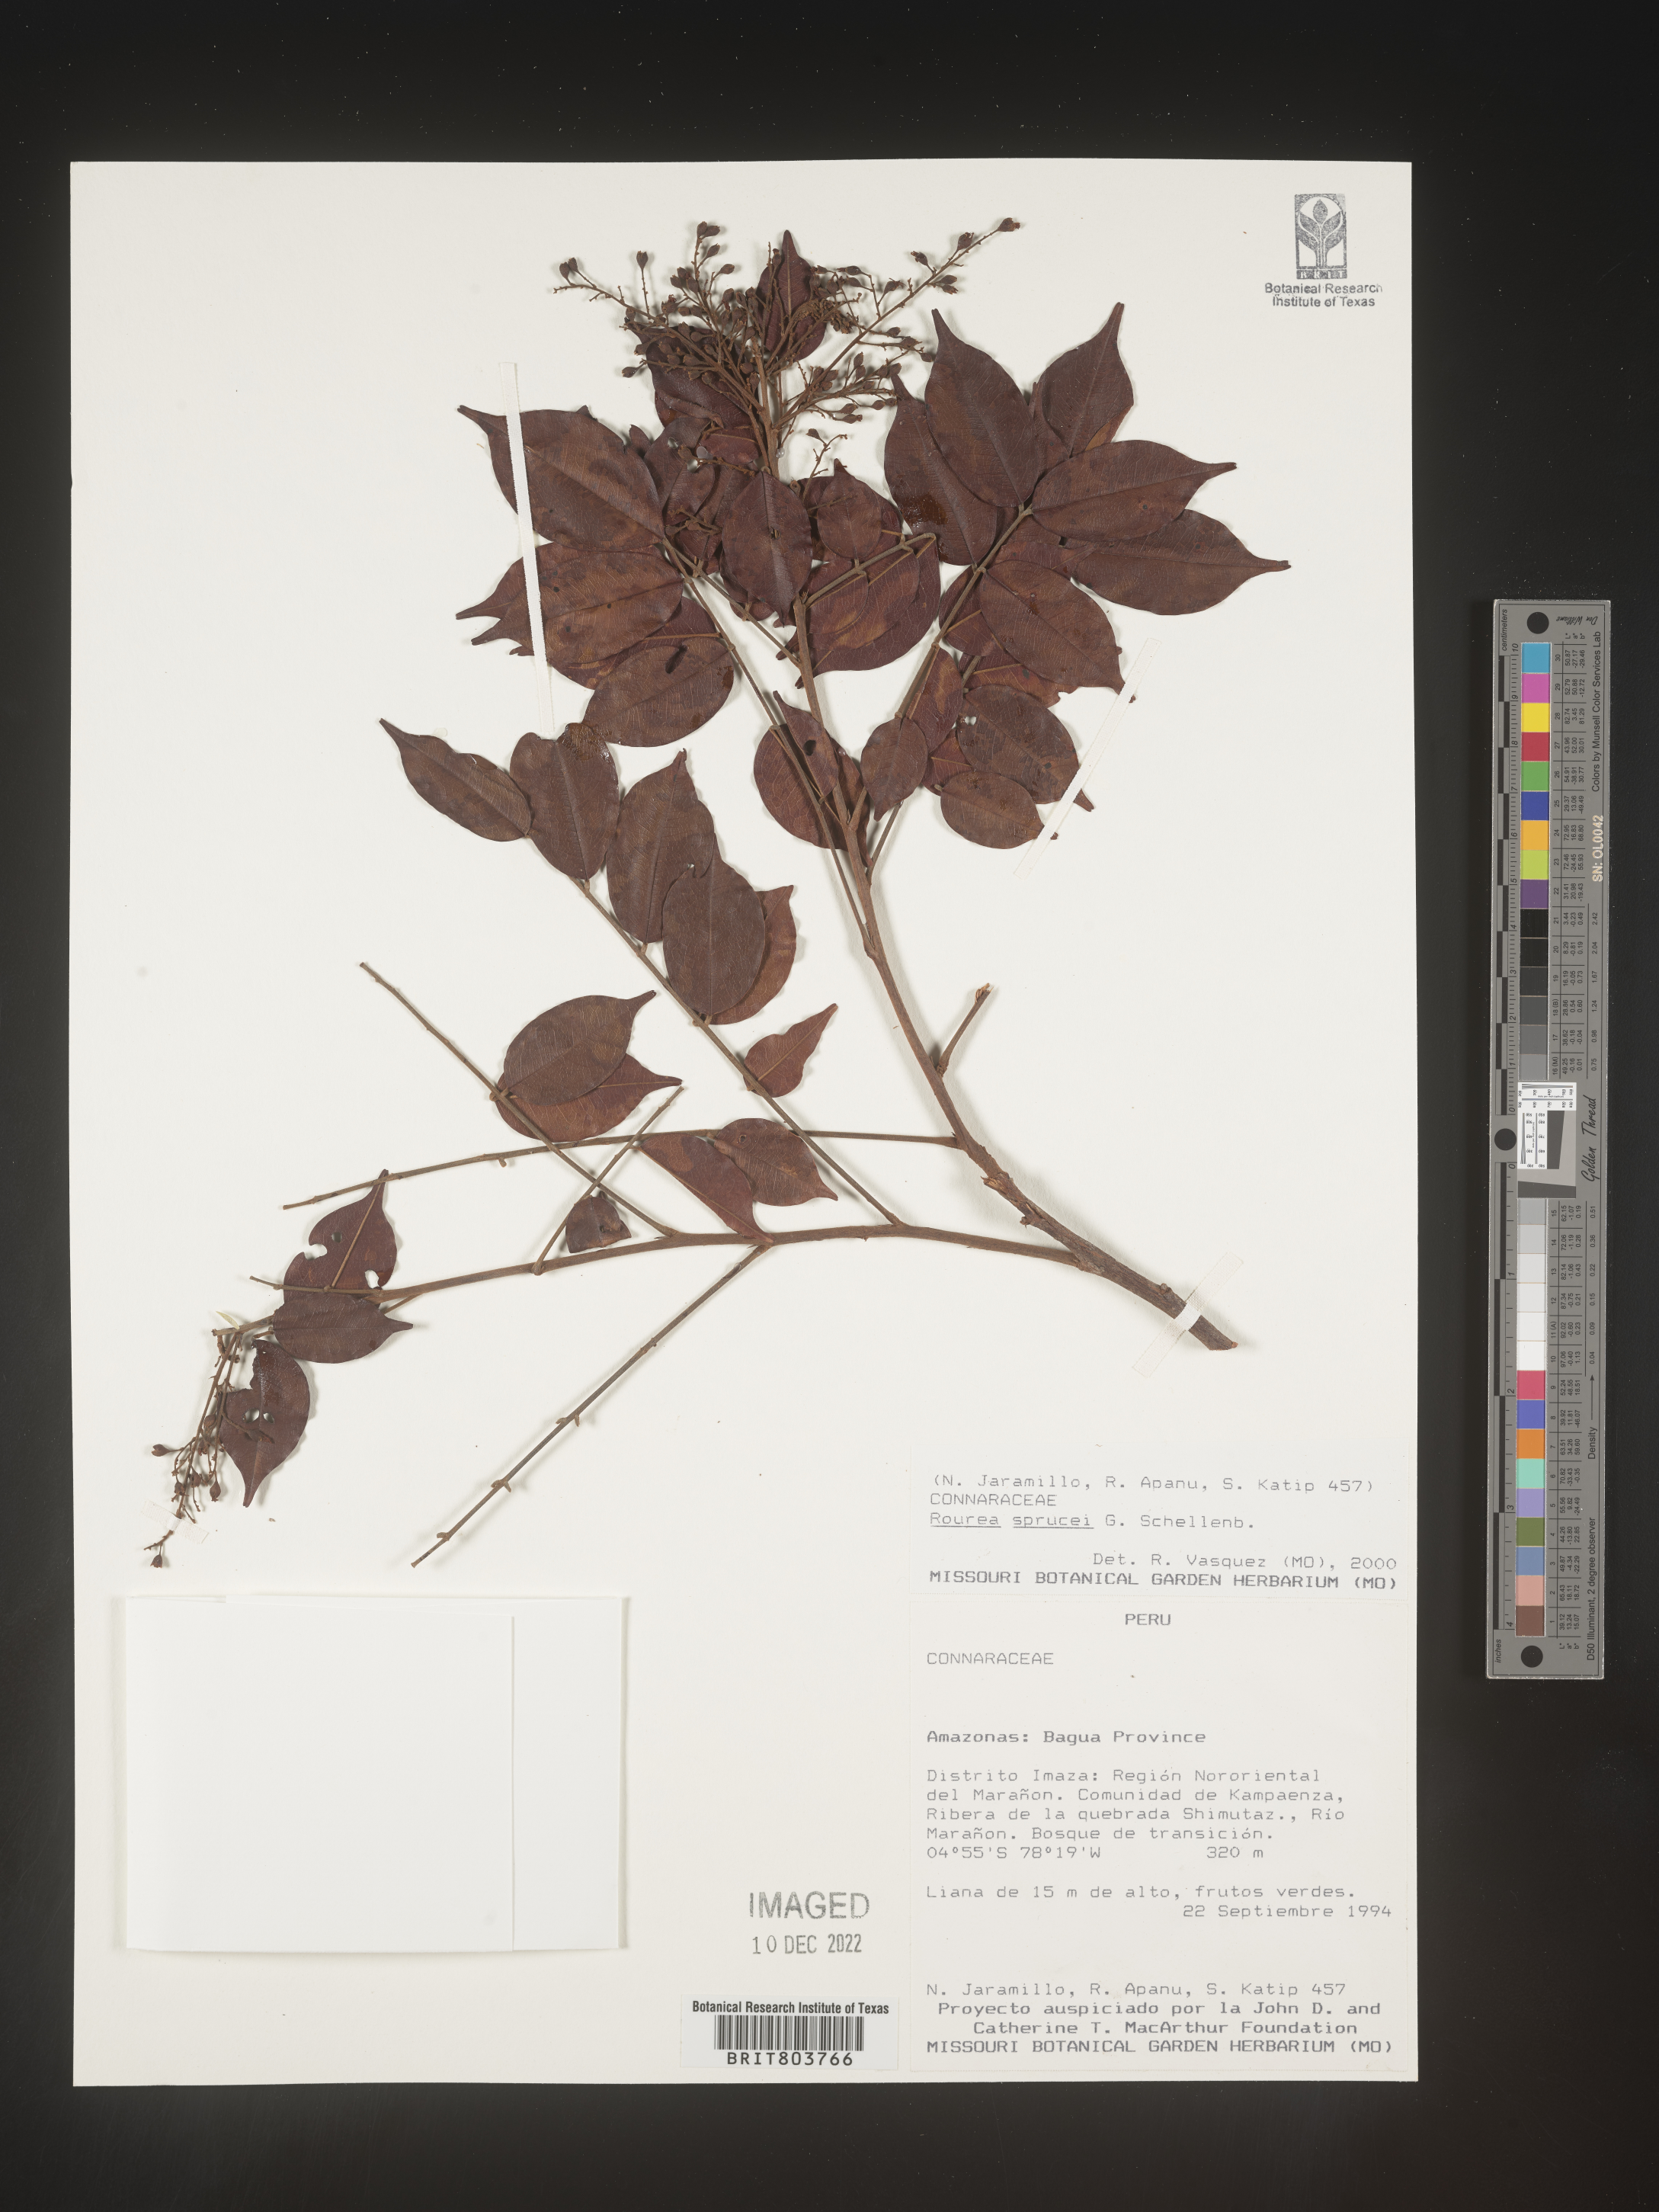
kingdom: Plantae
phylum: Tracheophyta
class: Magnoliopsida
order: Oxalidales
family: Connaraceae
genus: Rourea
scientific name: Rourea
